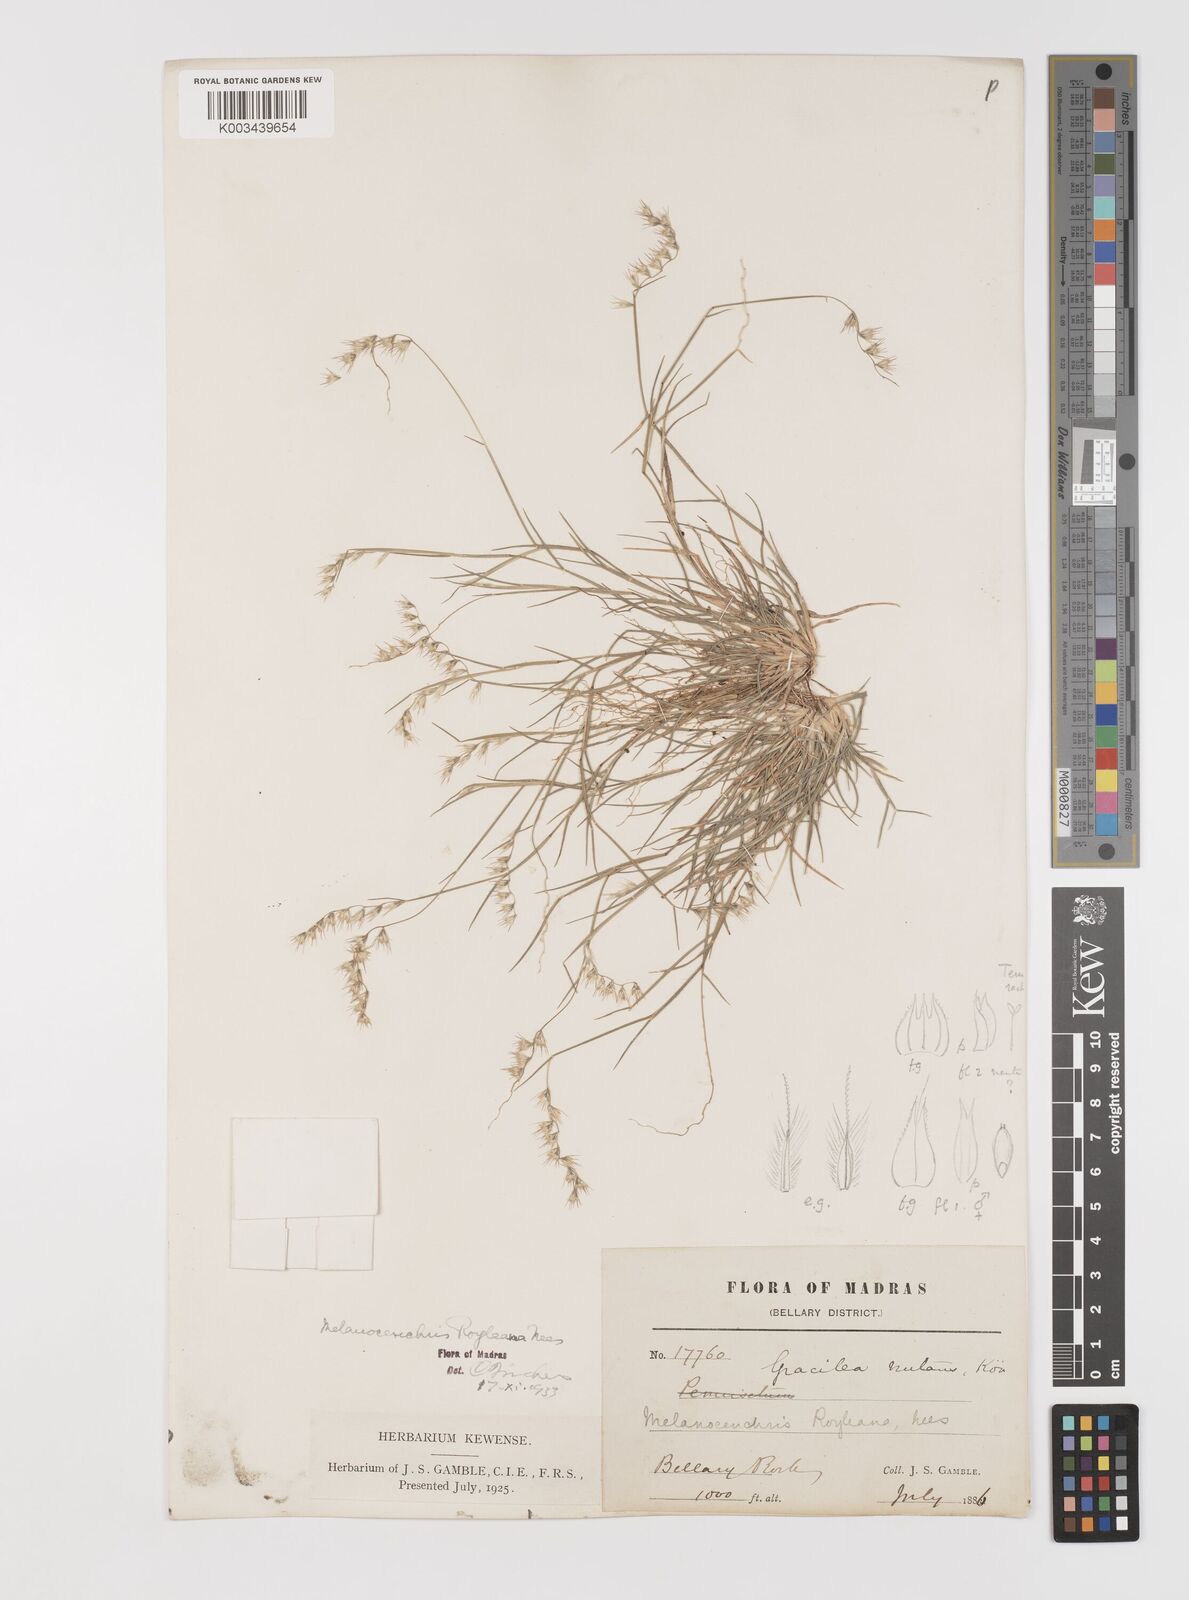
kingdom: Plantae
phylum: Tracheophyta
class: Liliopsida
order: Poales
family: Poaceae
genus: Melanocenchris
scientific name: Melanocenchris jacquemontii
